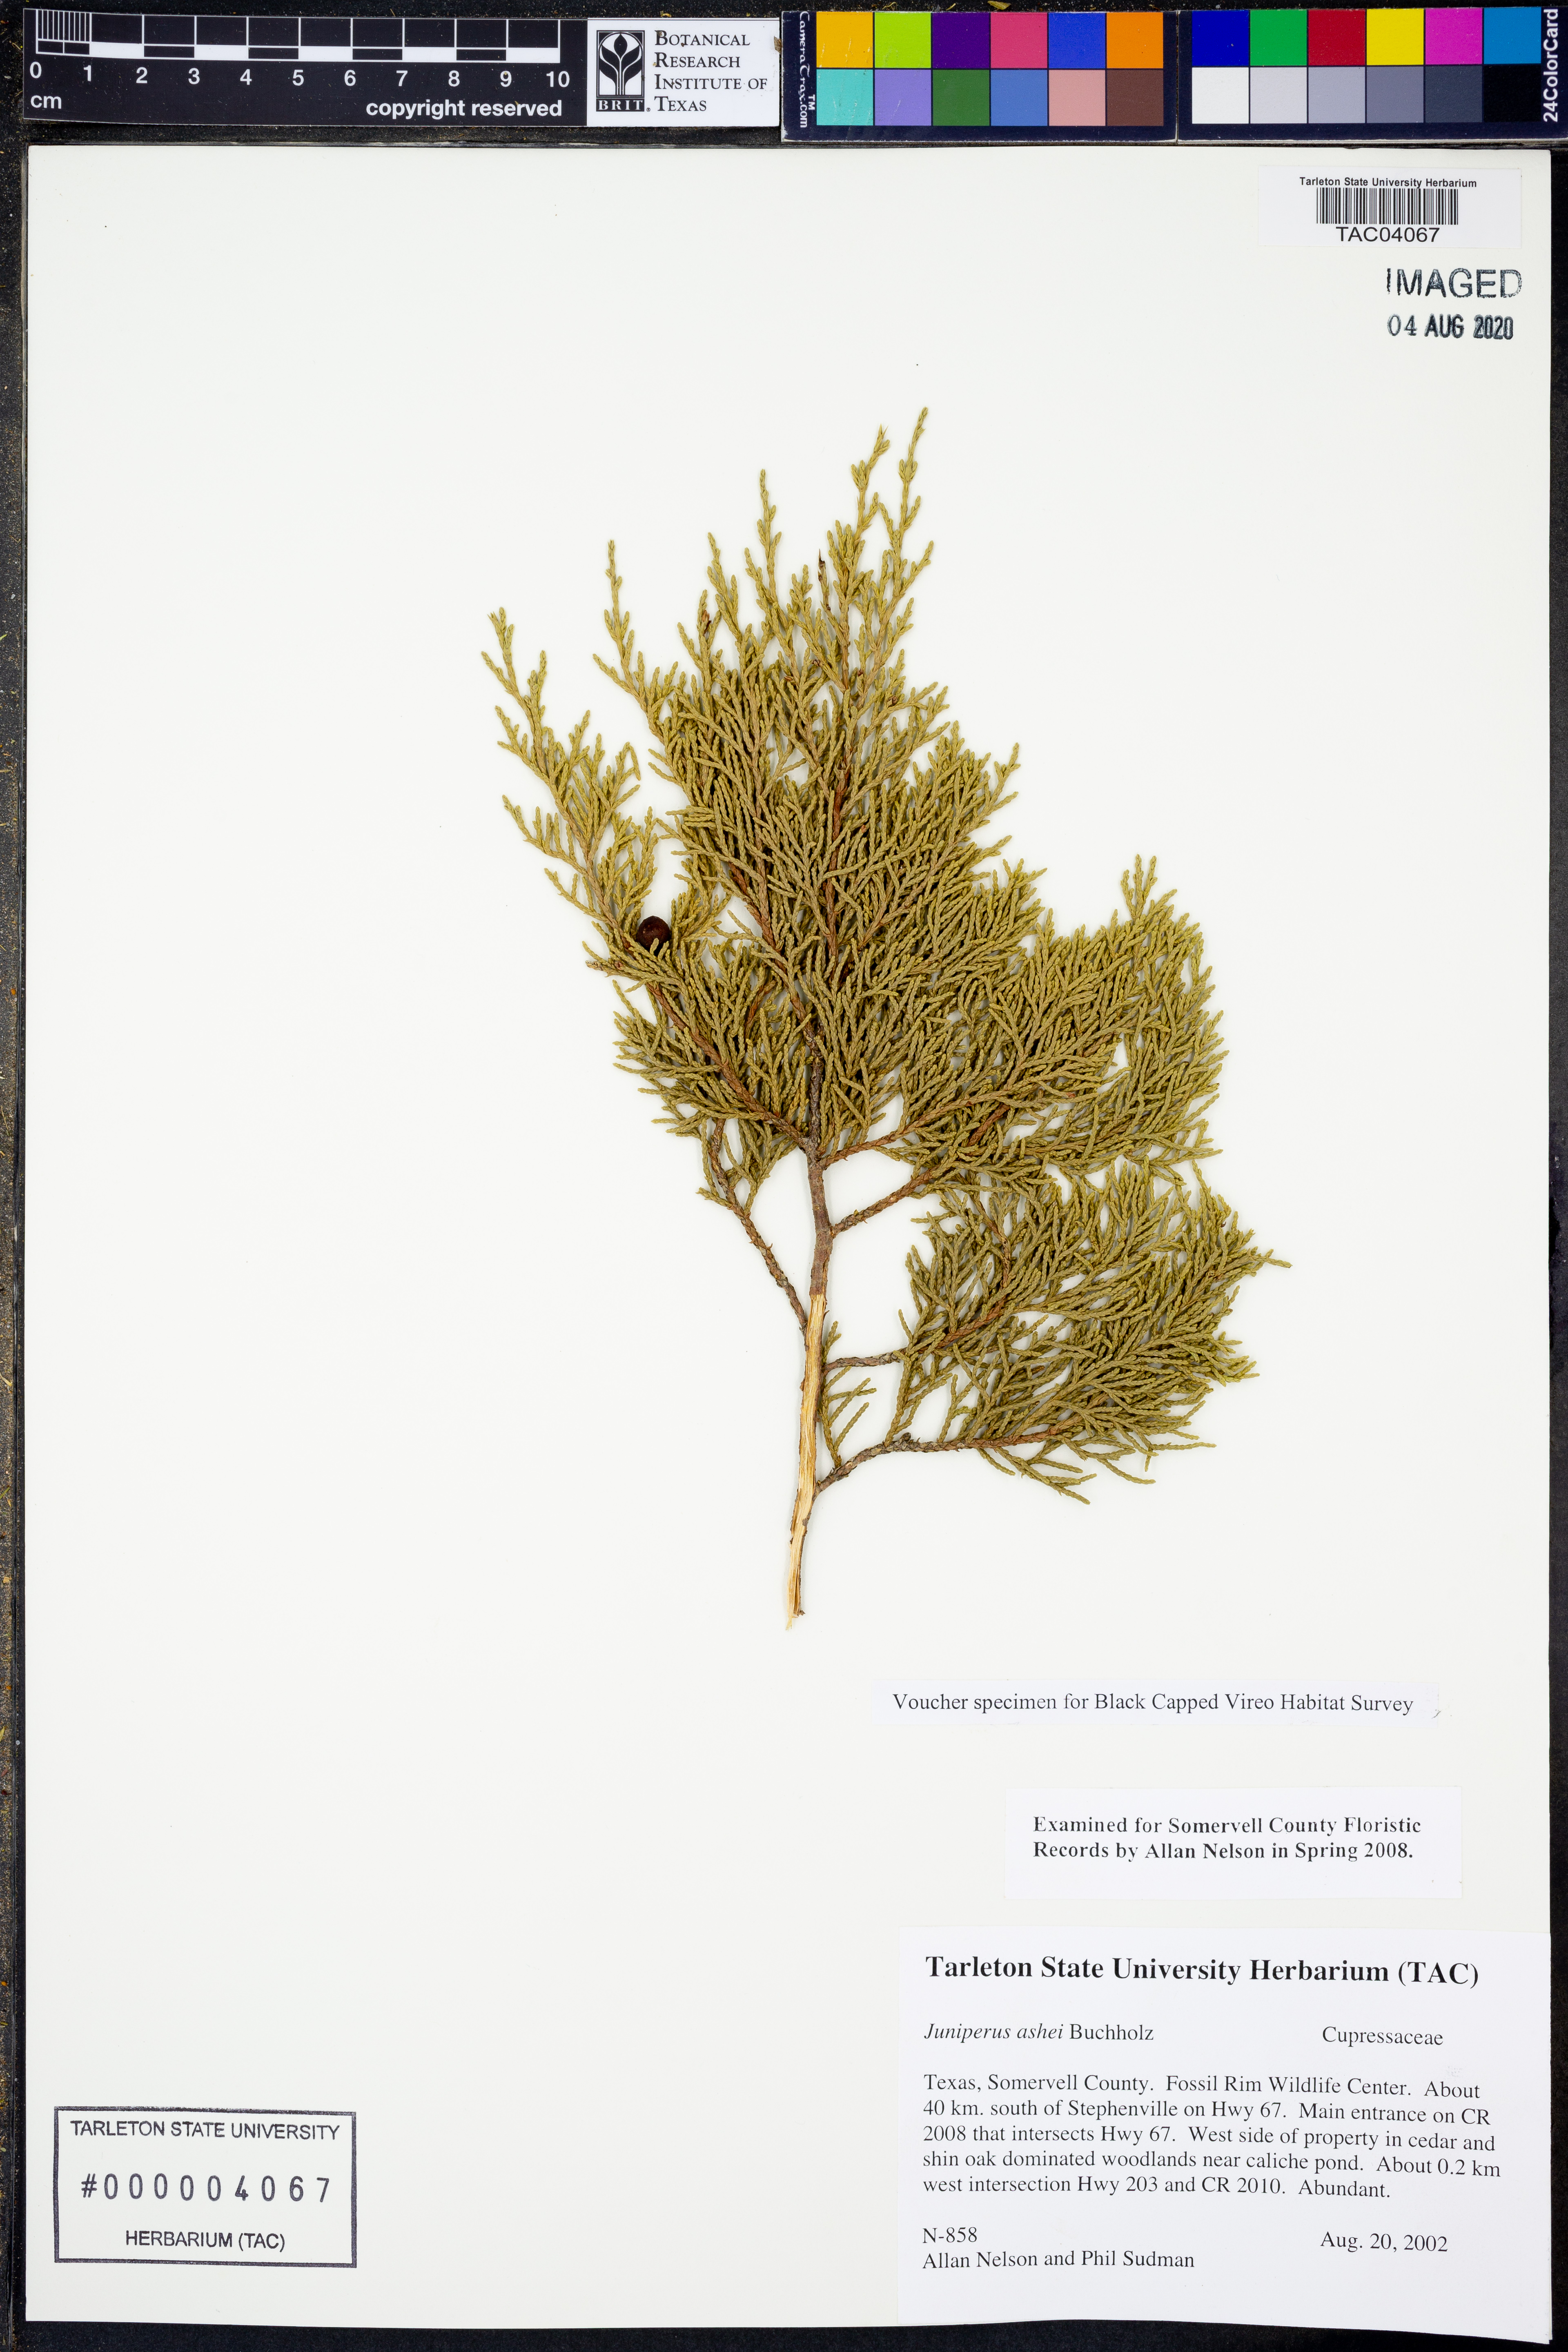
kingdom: Plantae
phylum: Tracheophyta
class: Pinopsida
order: Pinales
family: Cupressaceae
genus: Juniperus
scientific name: Juniperus ashei
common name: Mexican juniper
